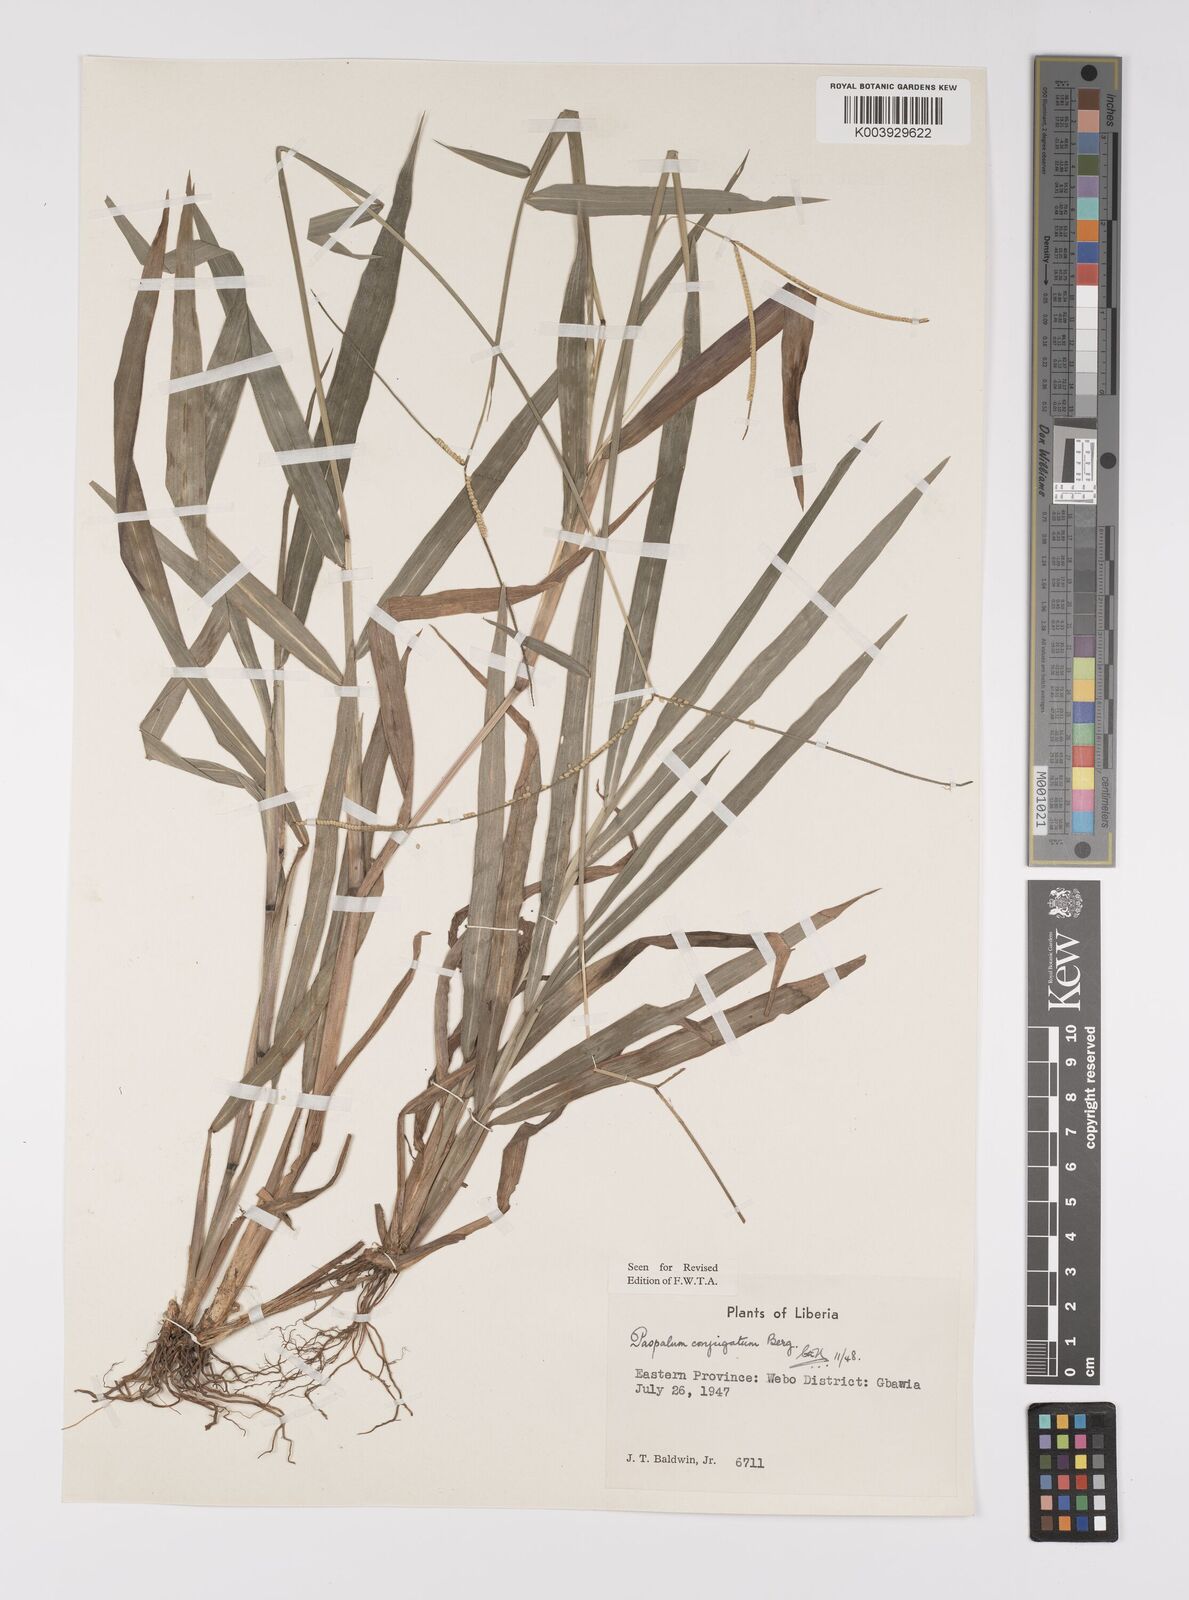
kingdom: Plantae
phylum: Tracheophyta
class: Liliopsida
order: Poales
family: Poaceae
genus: Paspalum
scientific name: Paspalum conjugatum
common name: Hilograss
